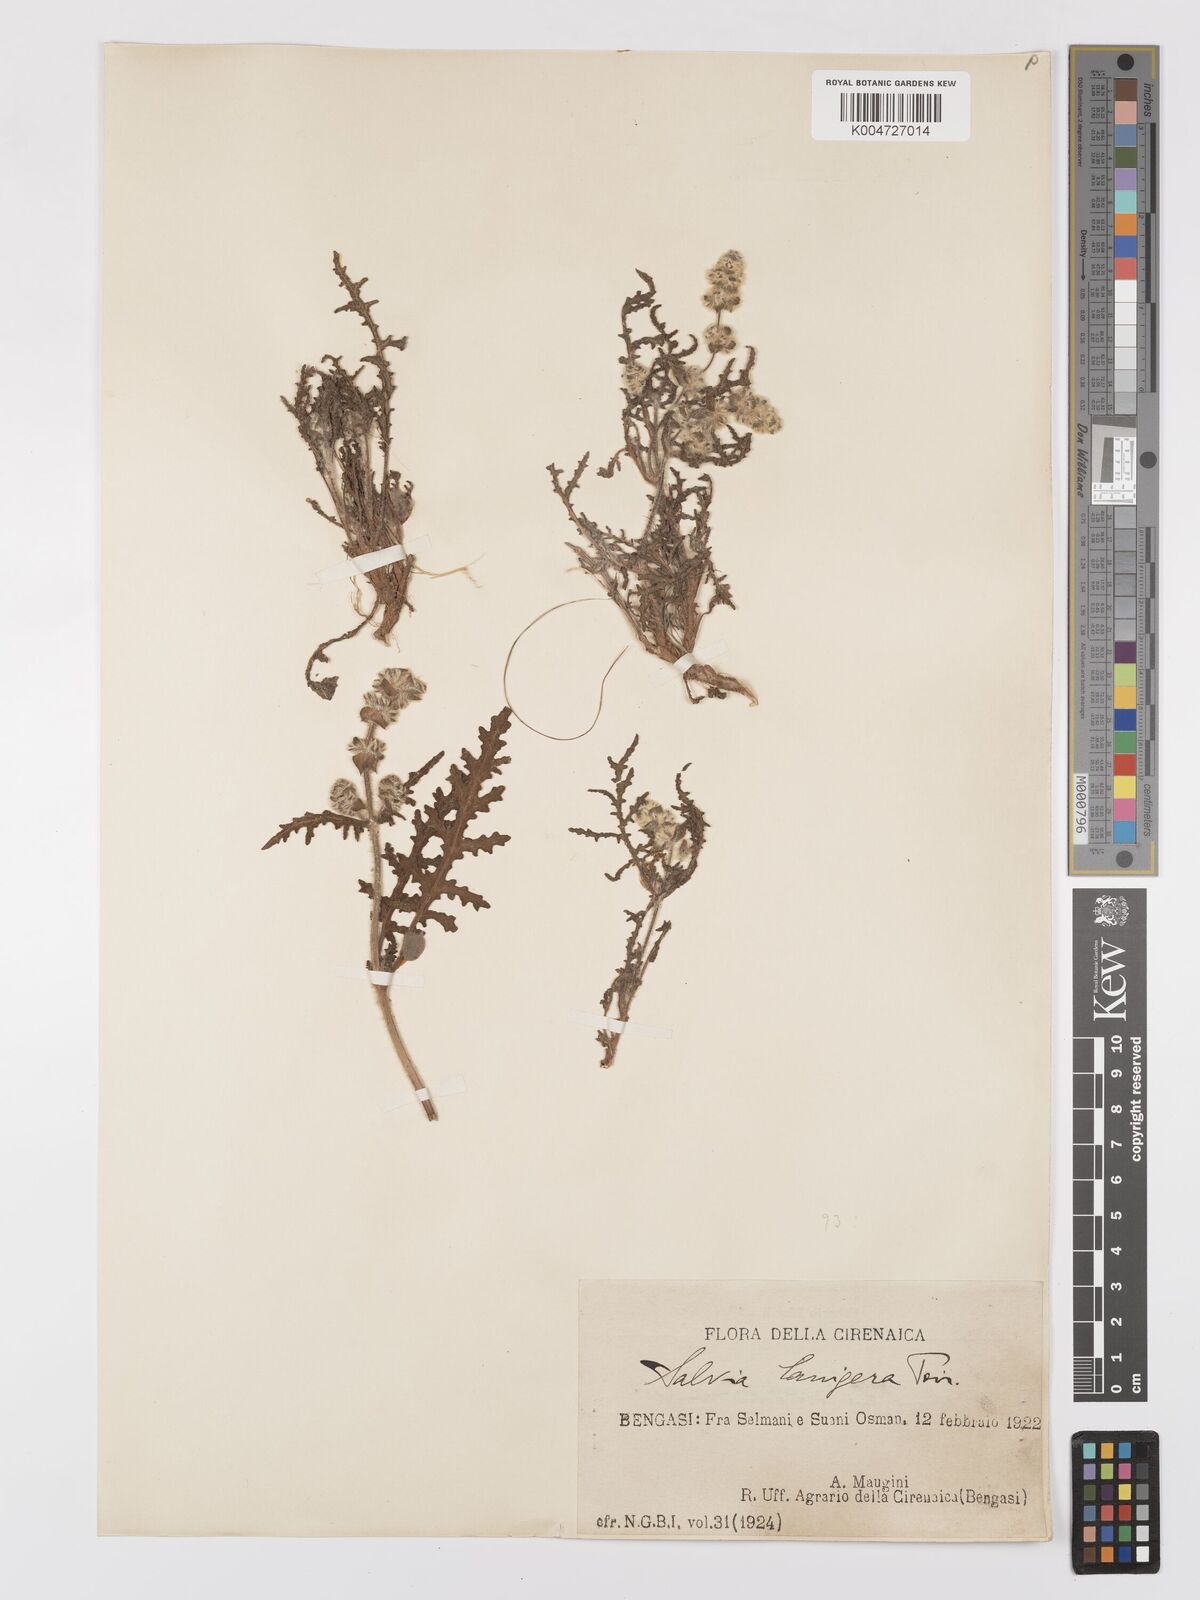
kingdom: Plantae
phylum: Tracheophyta
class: Magnoliopsida
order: Lamiales
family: Lamiaceae
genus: Salvia
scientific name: Salvia lanigera
